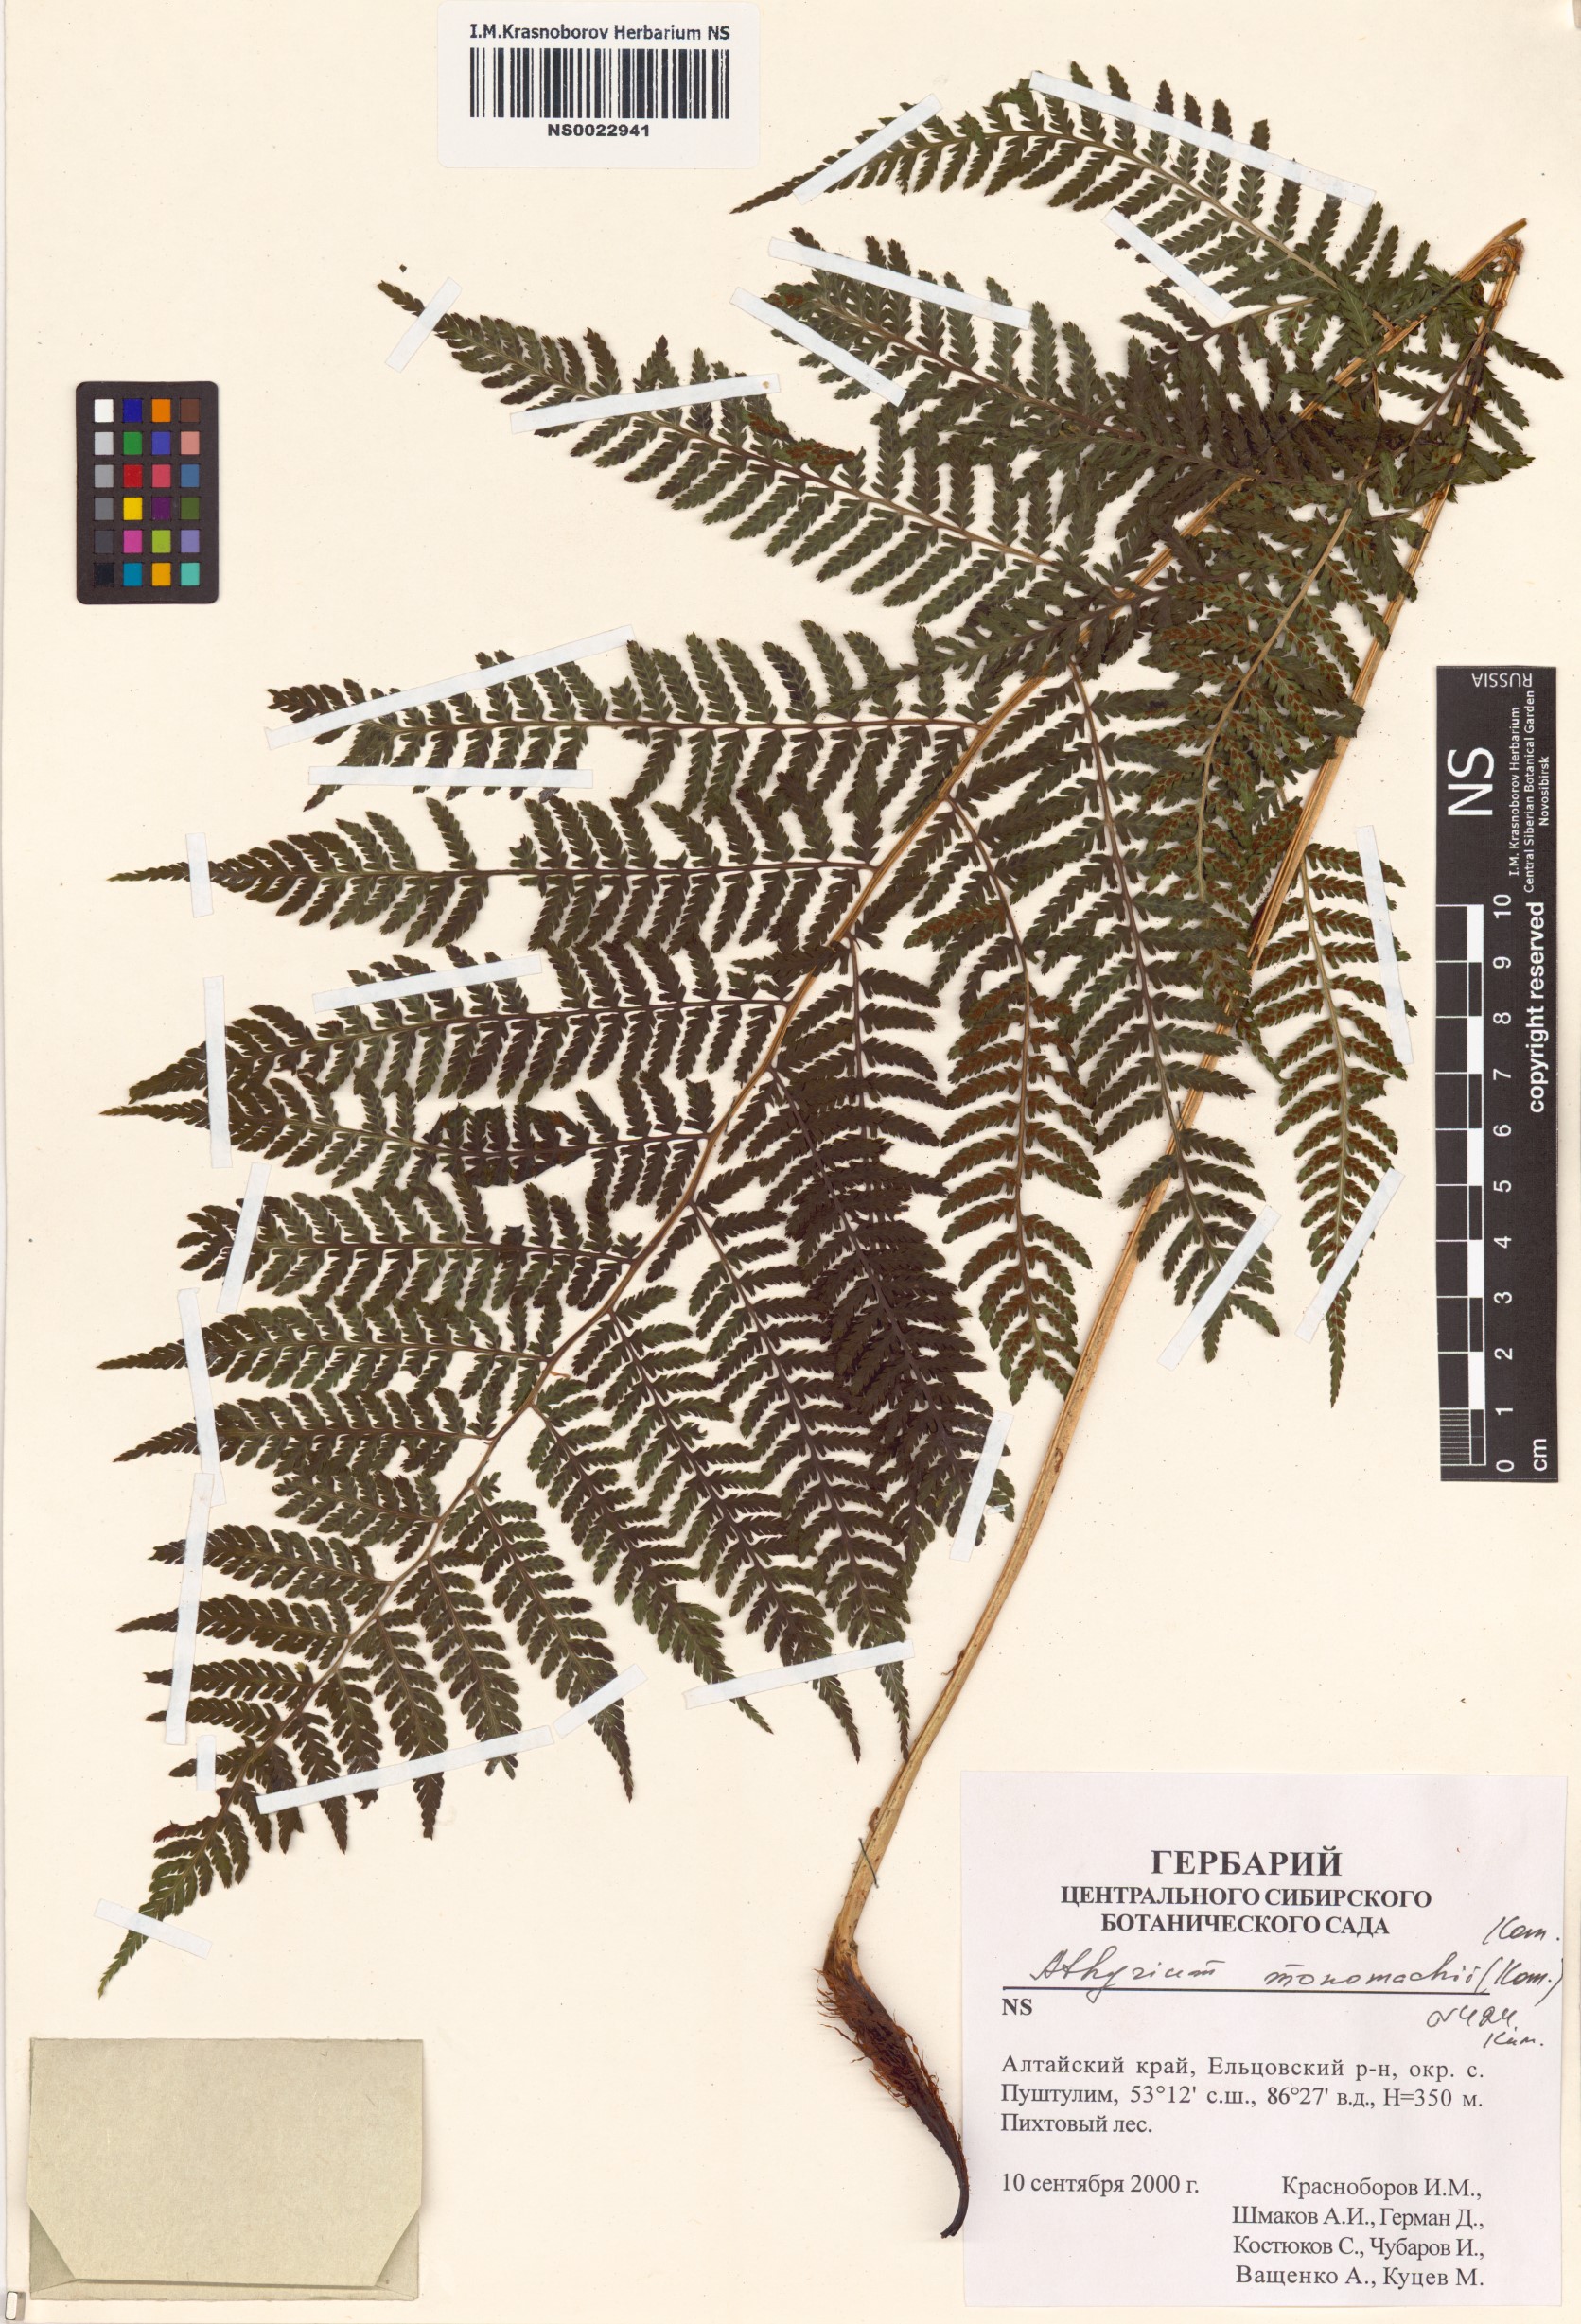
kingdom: Plantae
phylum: Tracheophyta
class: Polypodiopsida
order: Polypodiales
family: Athyriaceae
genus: Athyrium
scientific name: Athyrium monomachii
